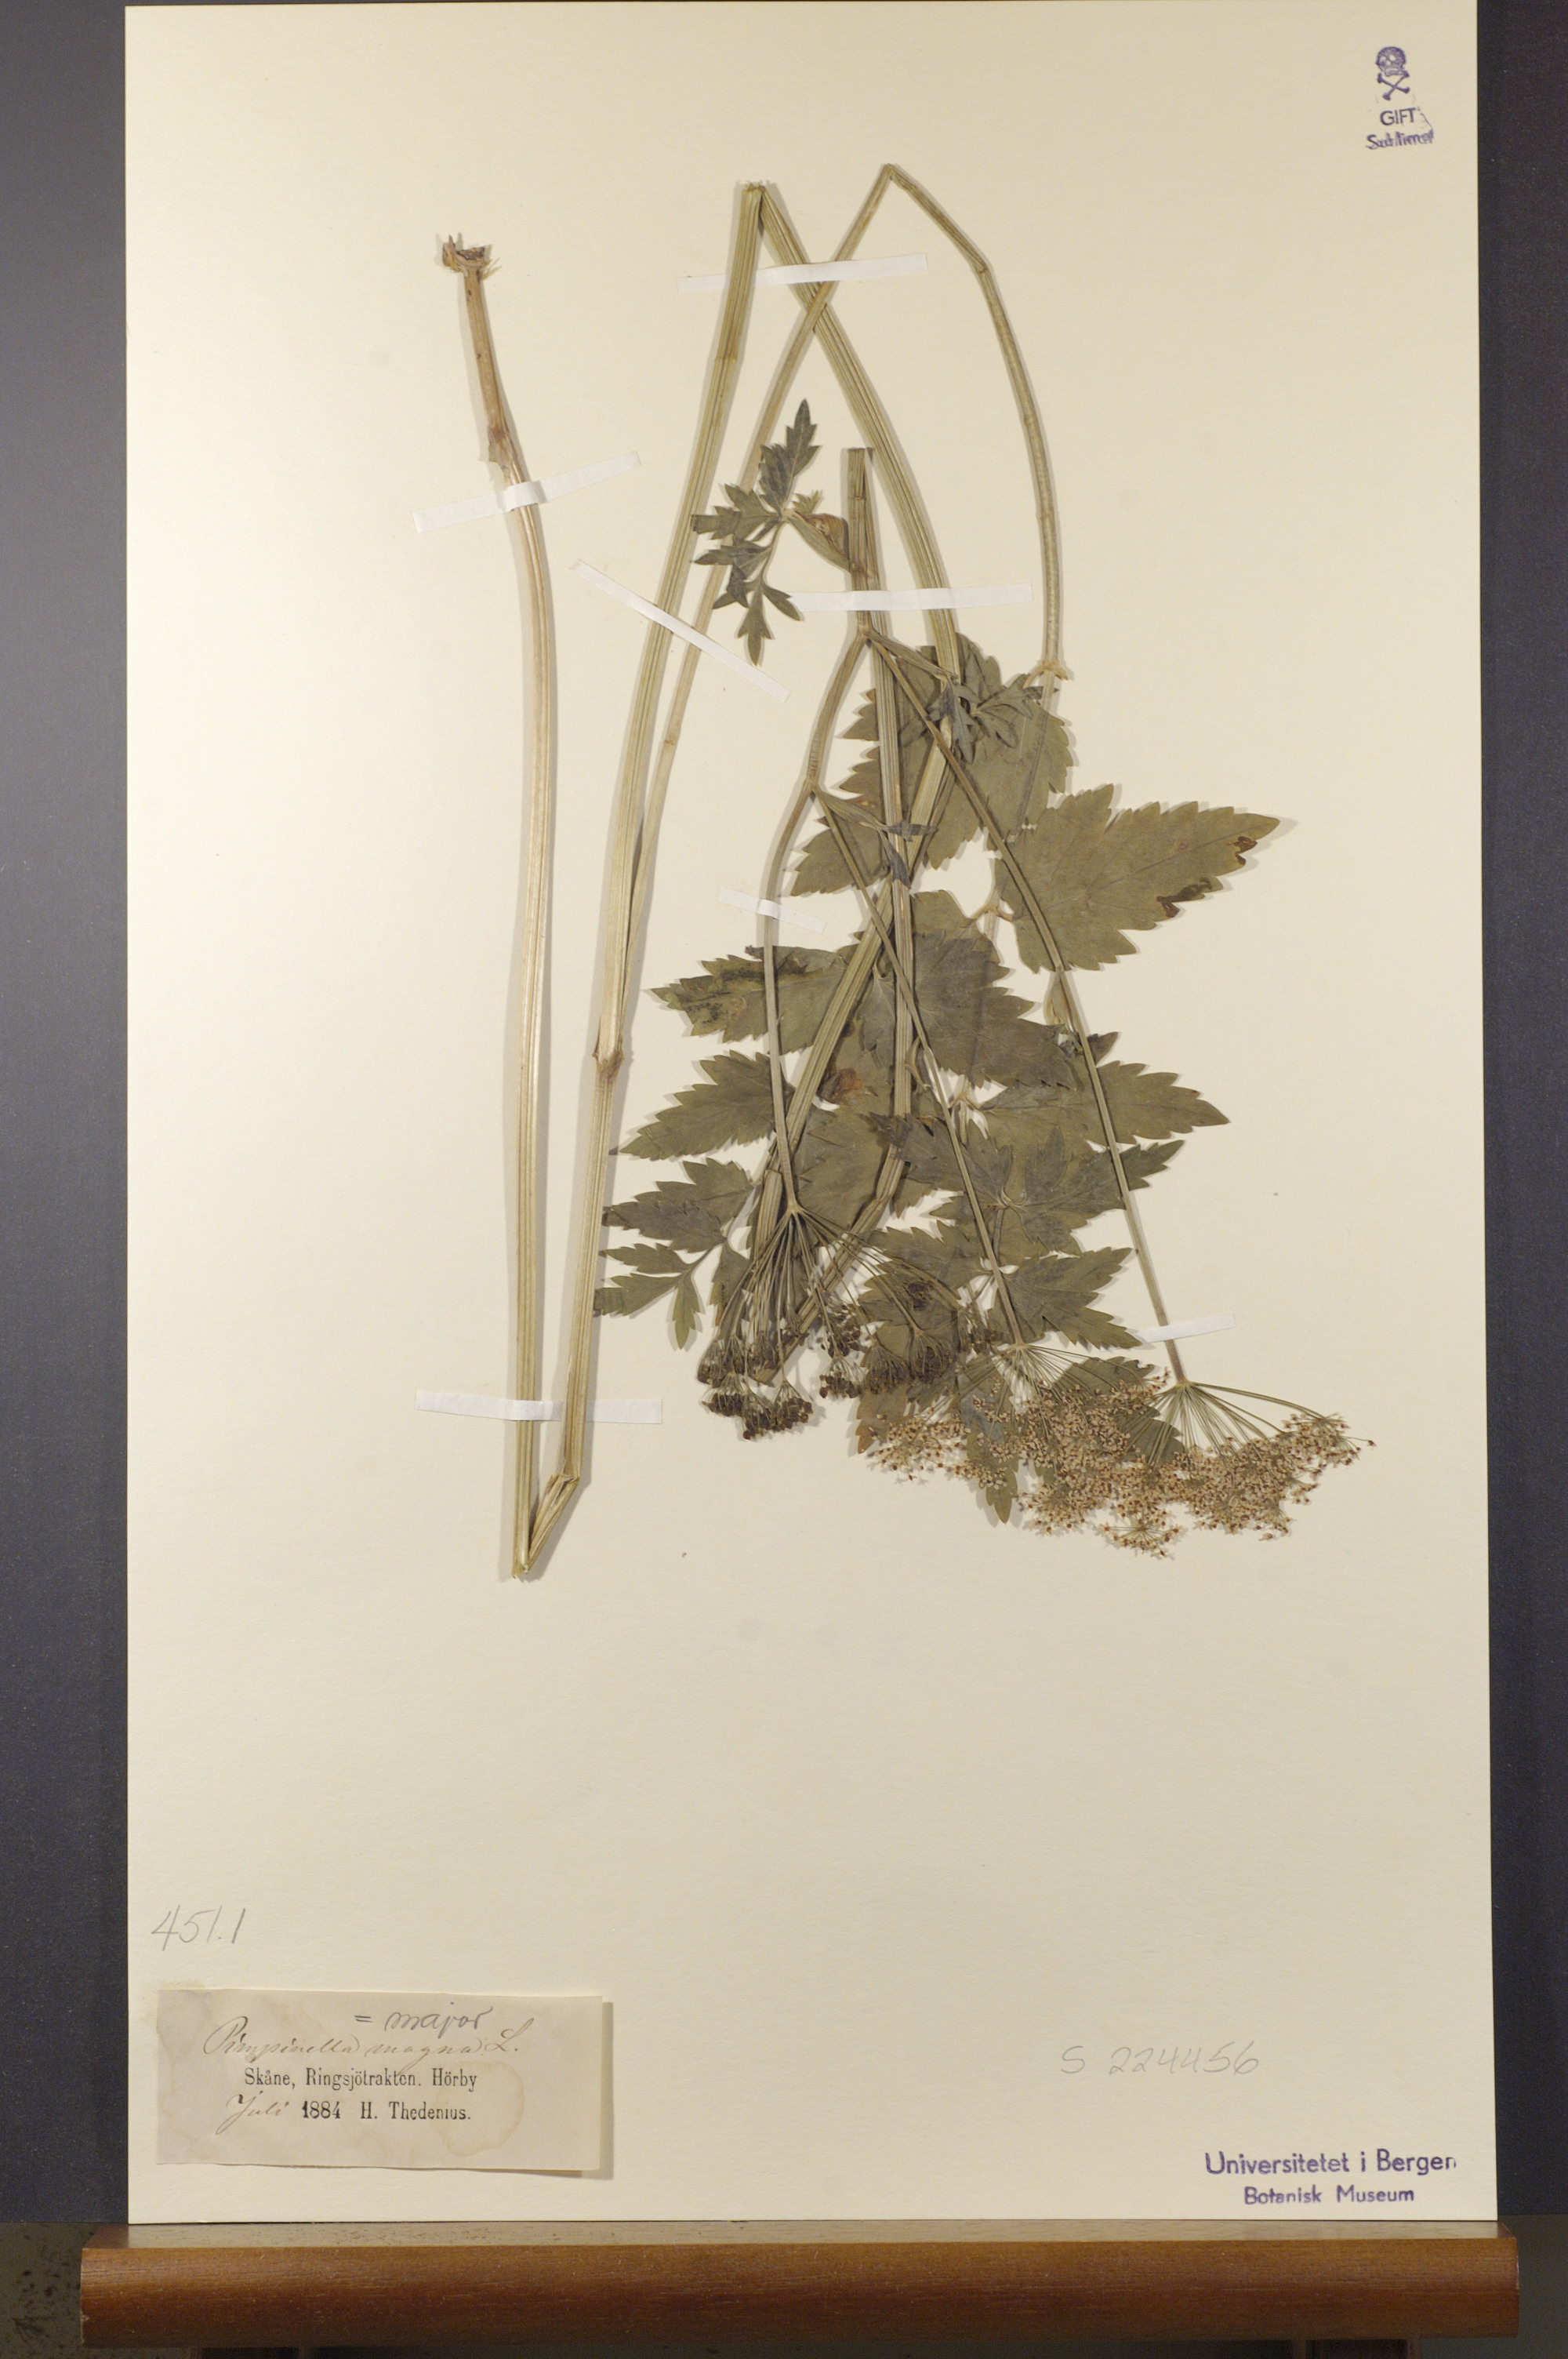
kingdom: Plantae
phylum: Tracheophyta
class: Magnoliopsida
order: Apiales
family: Apiaceae
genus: Pimpinella
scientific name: Pimpinella major
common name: Greater burnet-saxifrage
